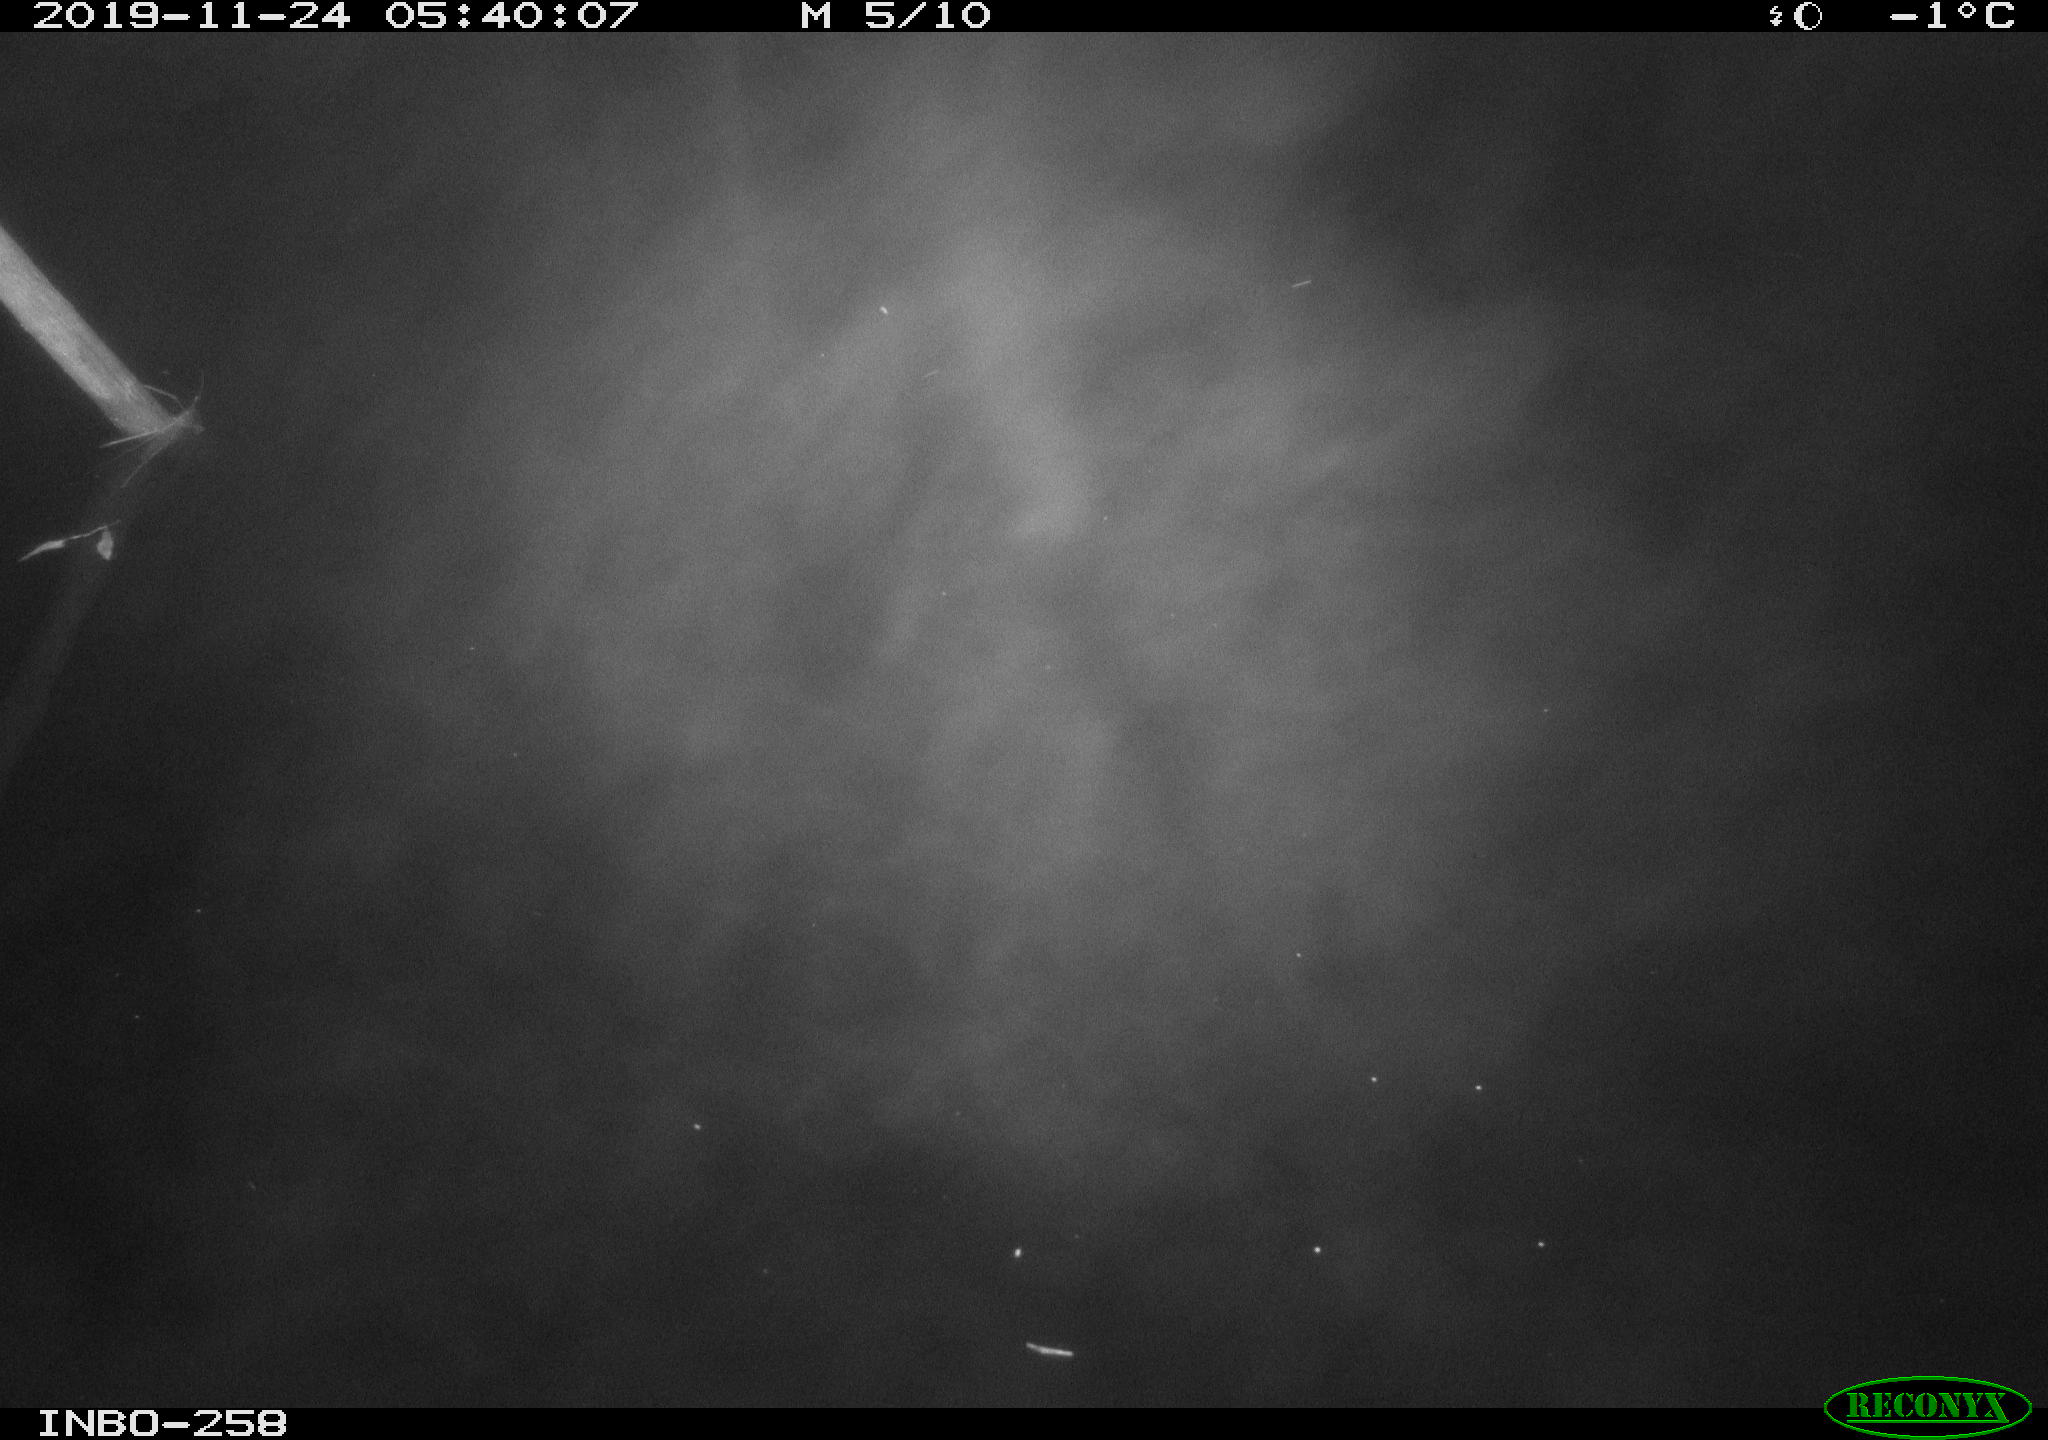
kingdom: Animalia
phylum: Chordata
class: Aves
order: Anseriformes
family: Anatidae
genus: Anas
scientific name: Anas platyrhynchos
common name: Mallard
